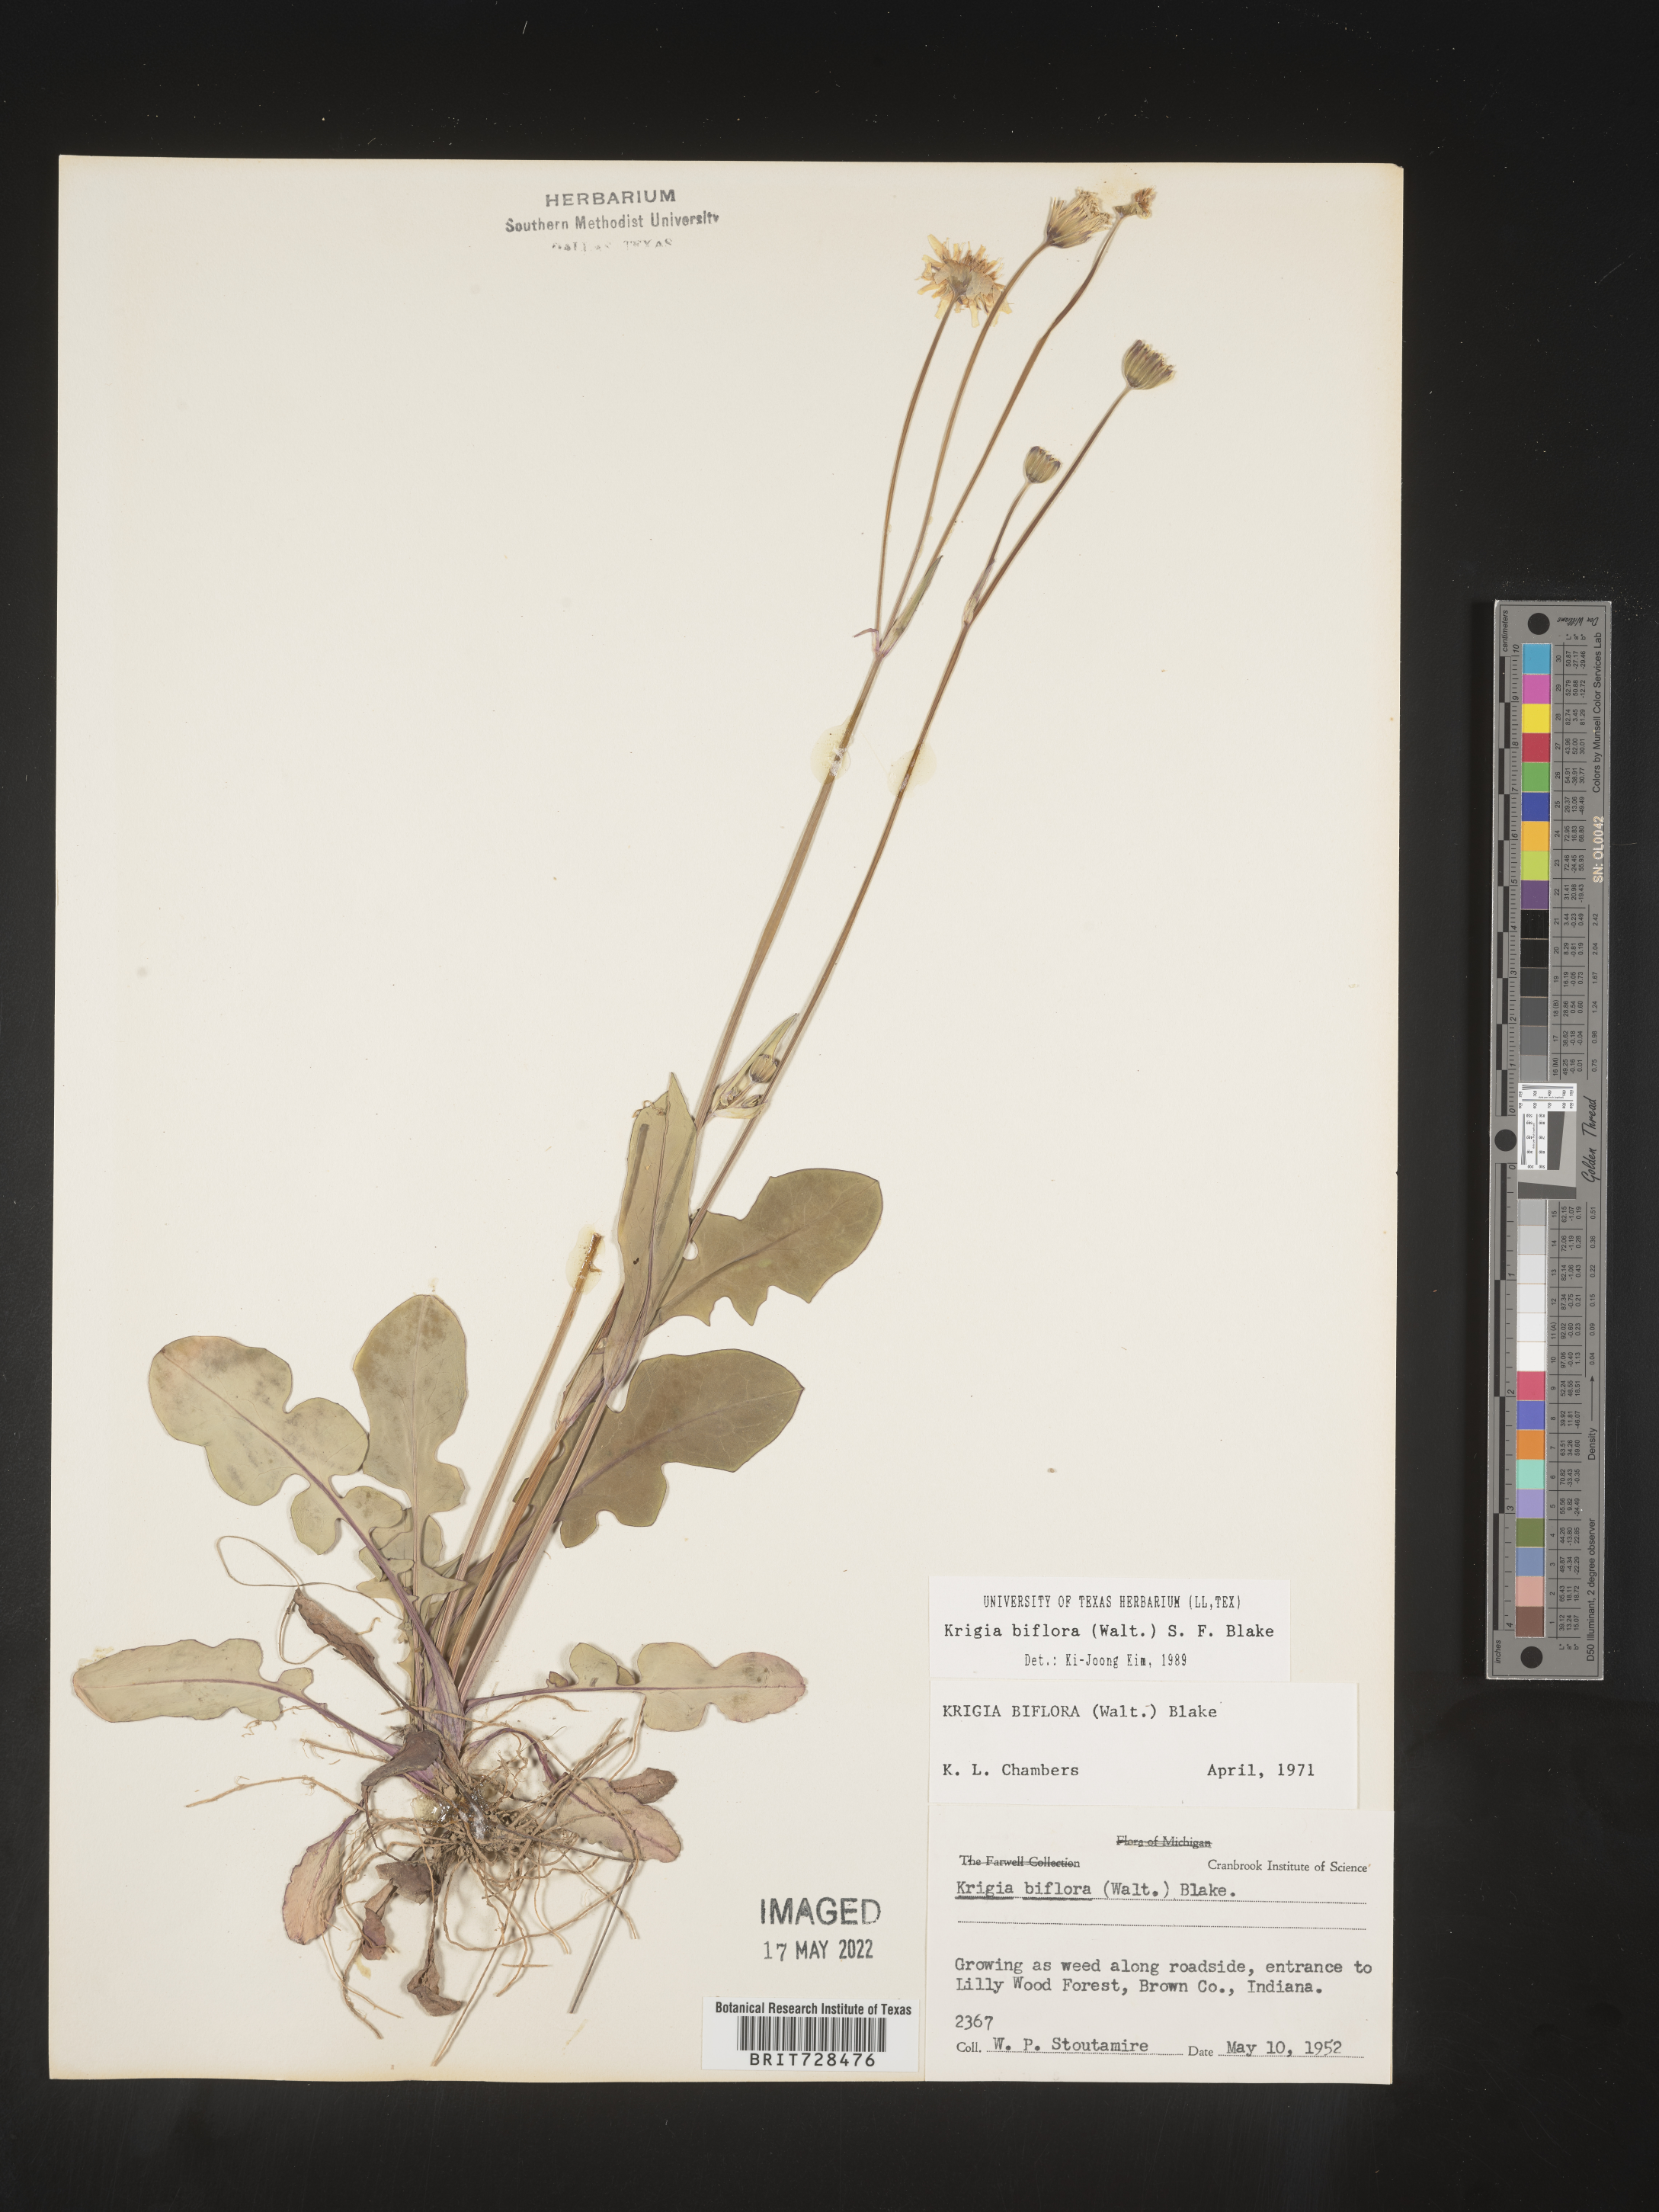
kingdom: Plantae
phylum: Tracheophyta
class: Magnoliopsida
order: Asterales
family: Asteraceae
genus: Krigia
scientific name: Krigia biflora
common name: Orange dwarf-dandelion
